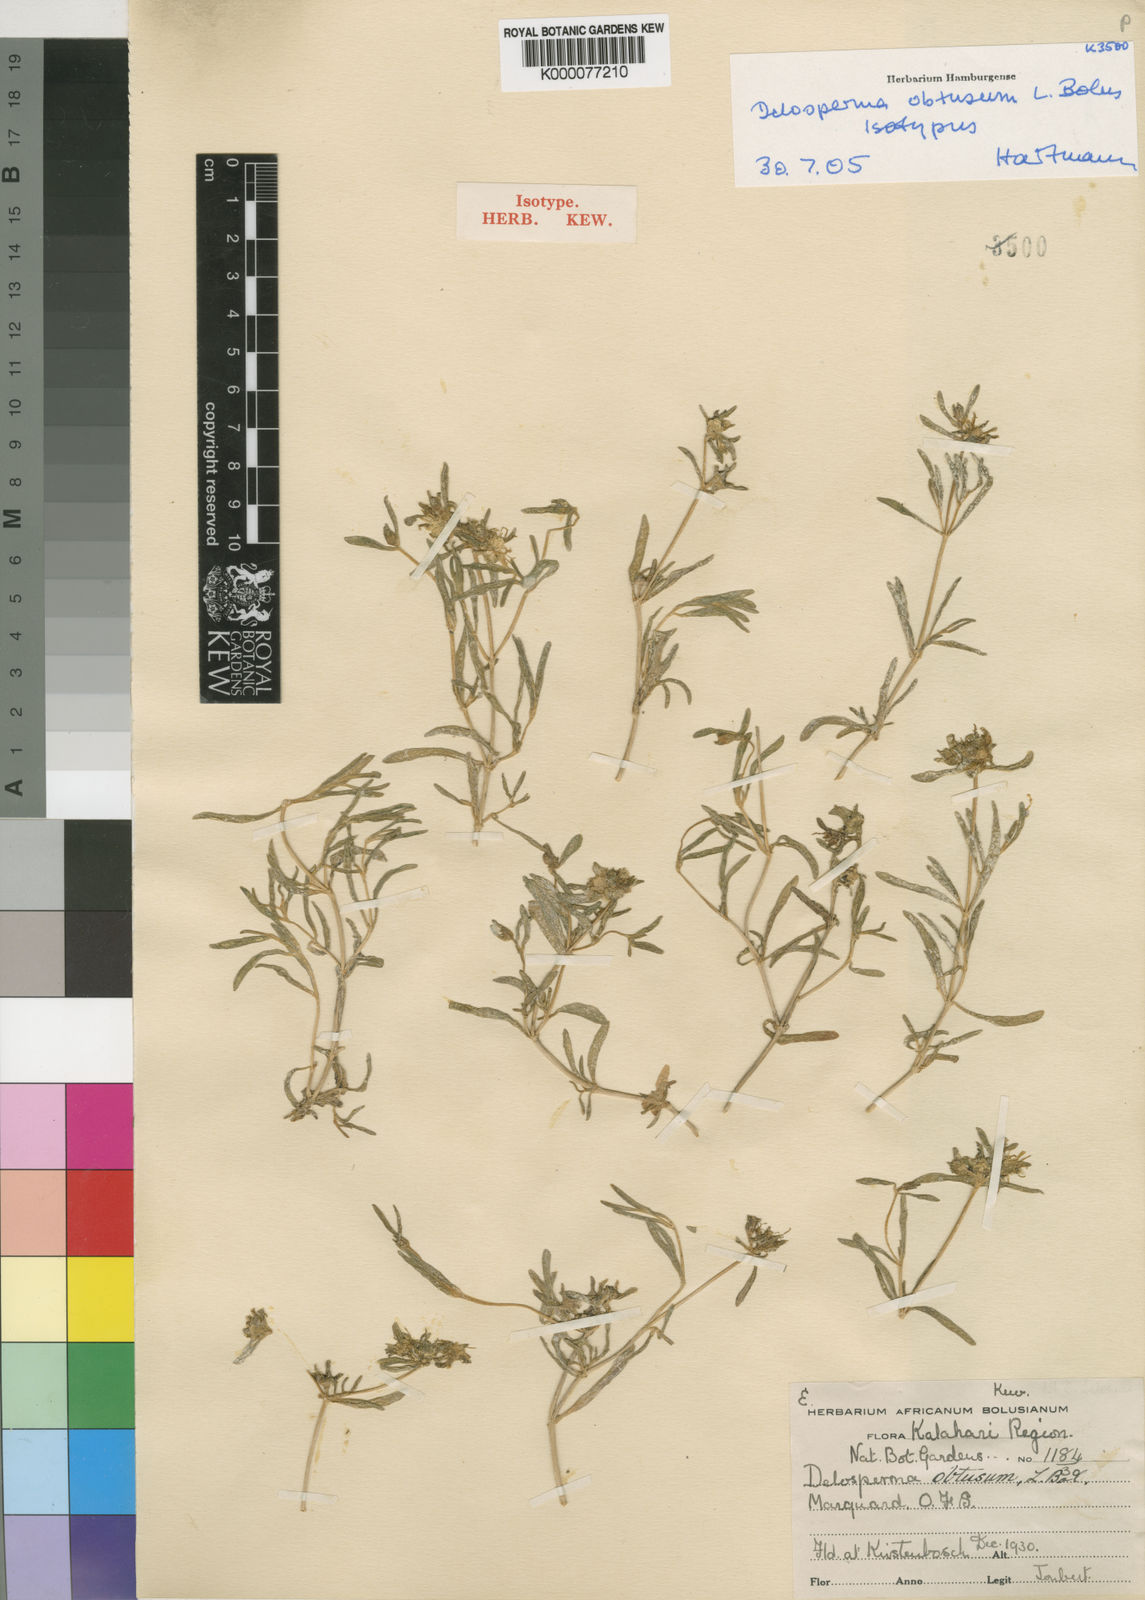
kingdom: Plantae
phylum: Tracheophyta
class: Magnoliopsida
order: Caryophyllales
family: Aizoaceae
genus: Delosperma
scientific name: Delosperma obtusum
